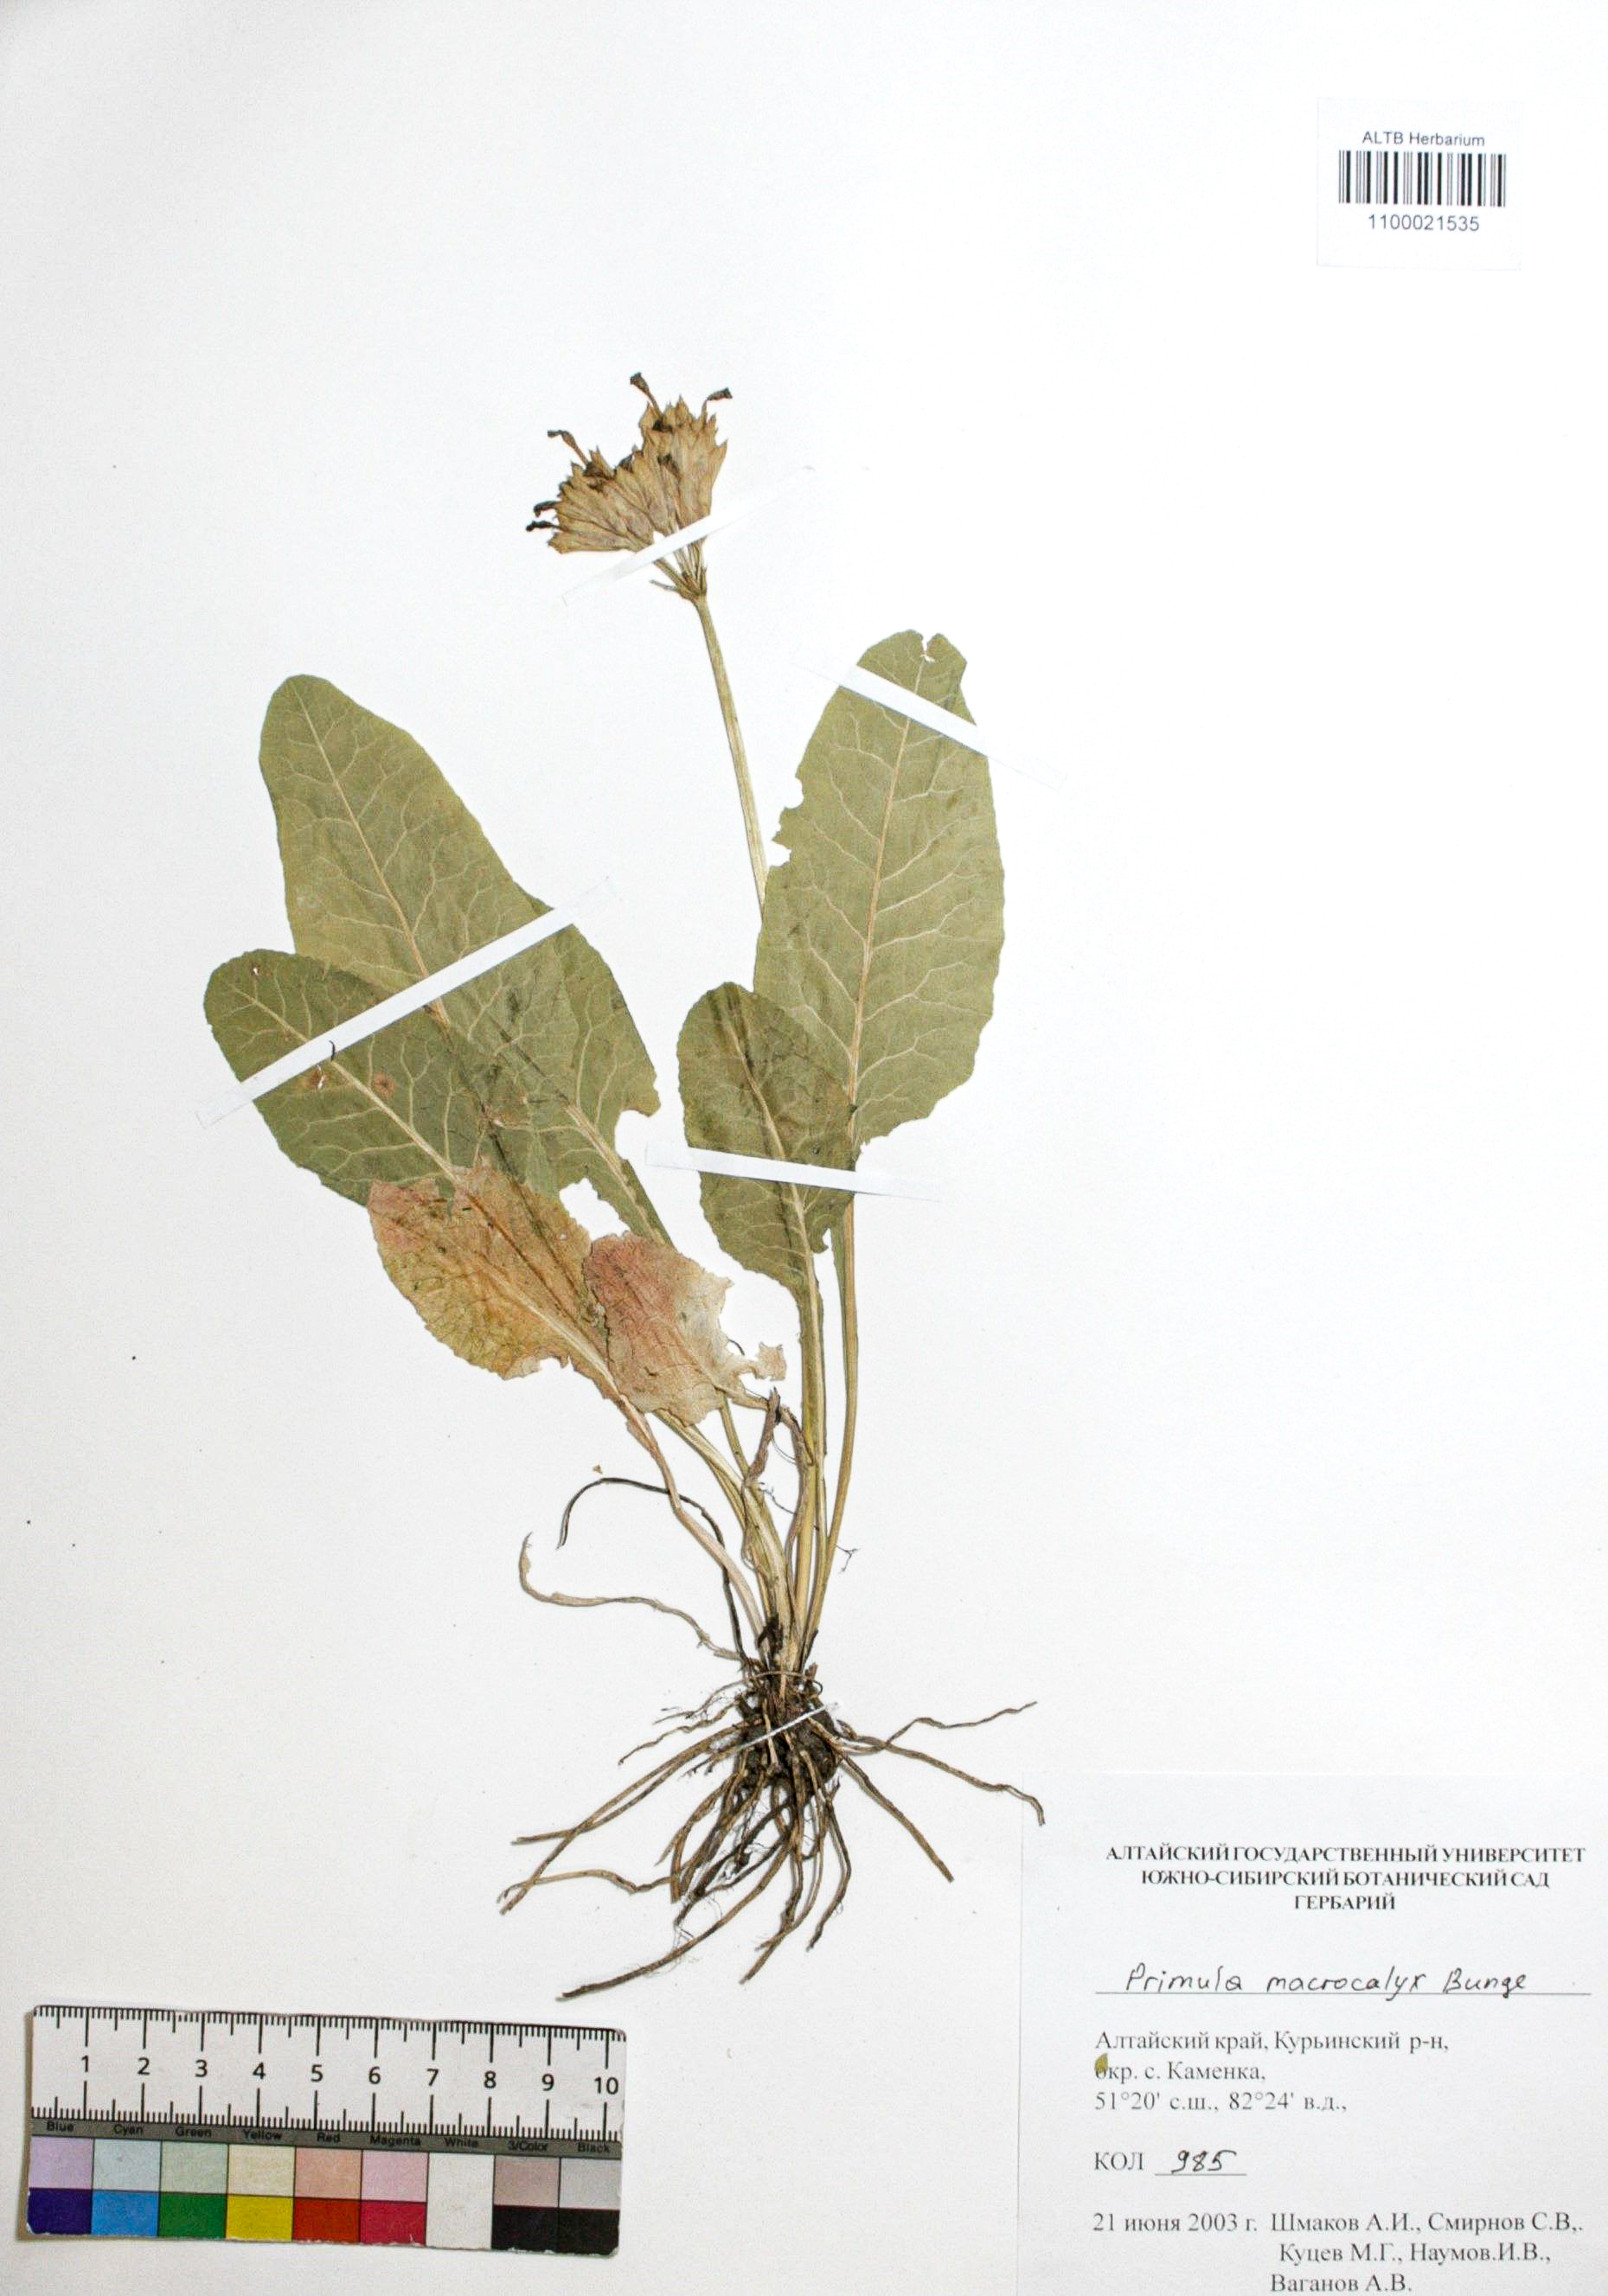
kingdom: Plantae
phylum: Tracheophyta
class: Magnoliopsida
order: Ericales
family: Primulaceae
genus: Primula
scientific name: Primula veris
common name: Cowslip
